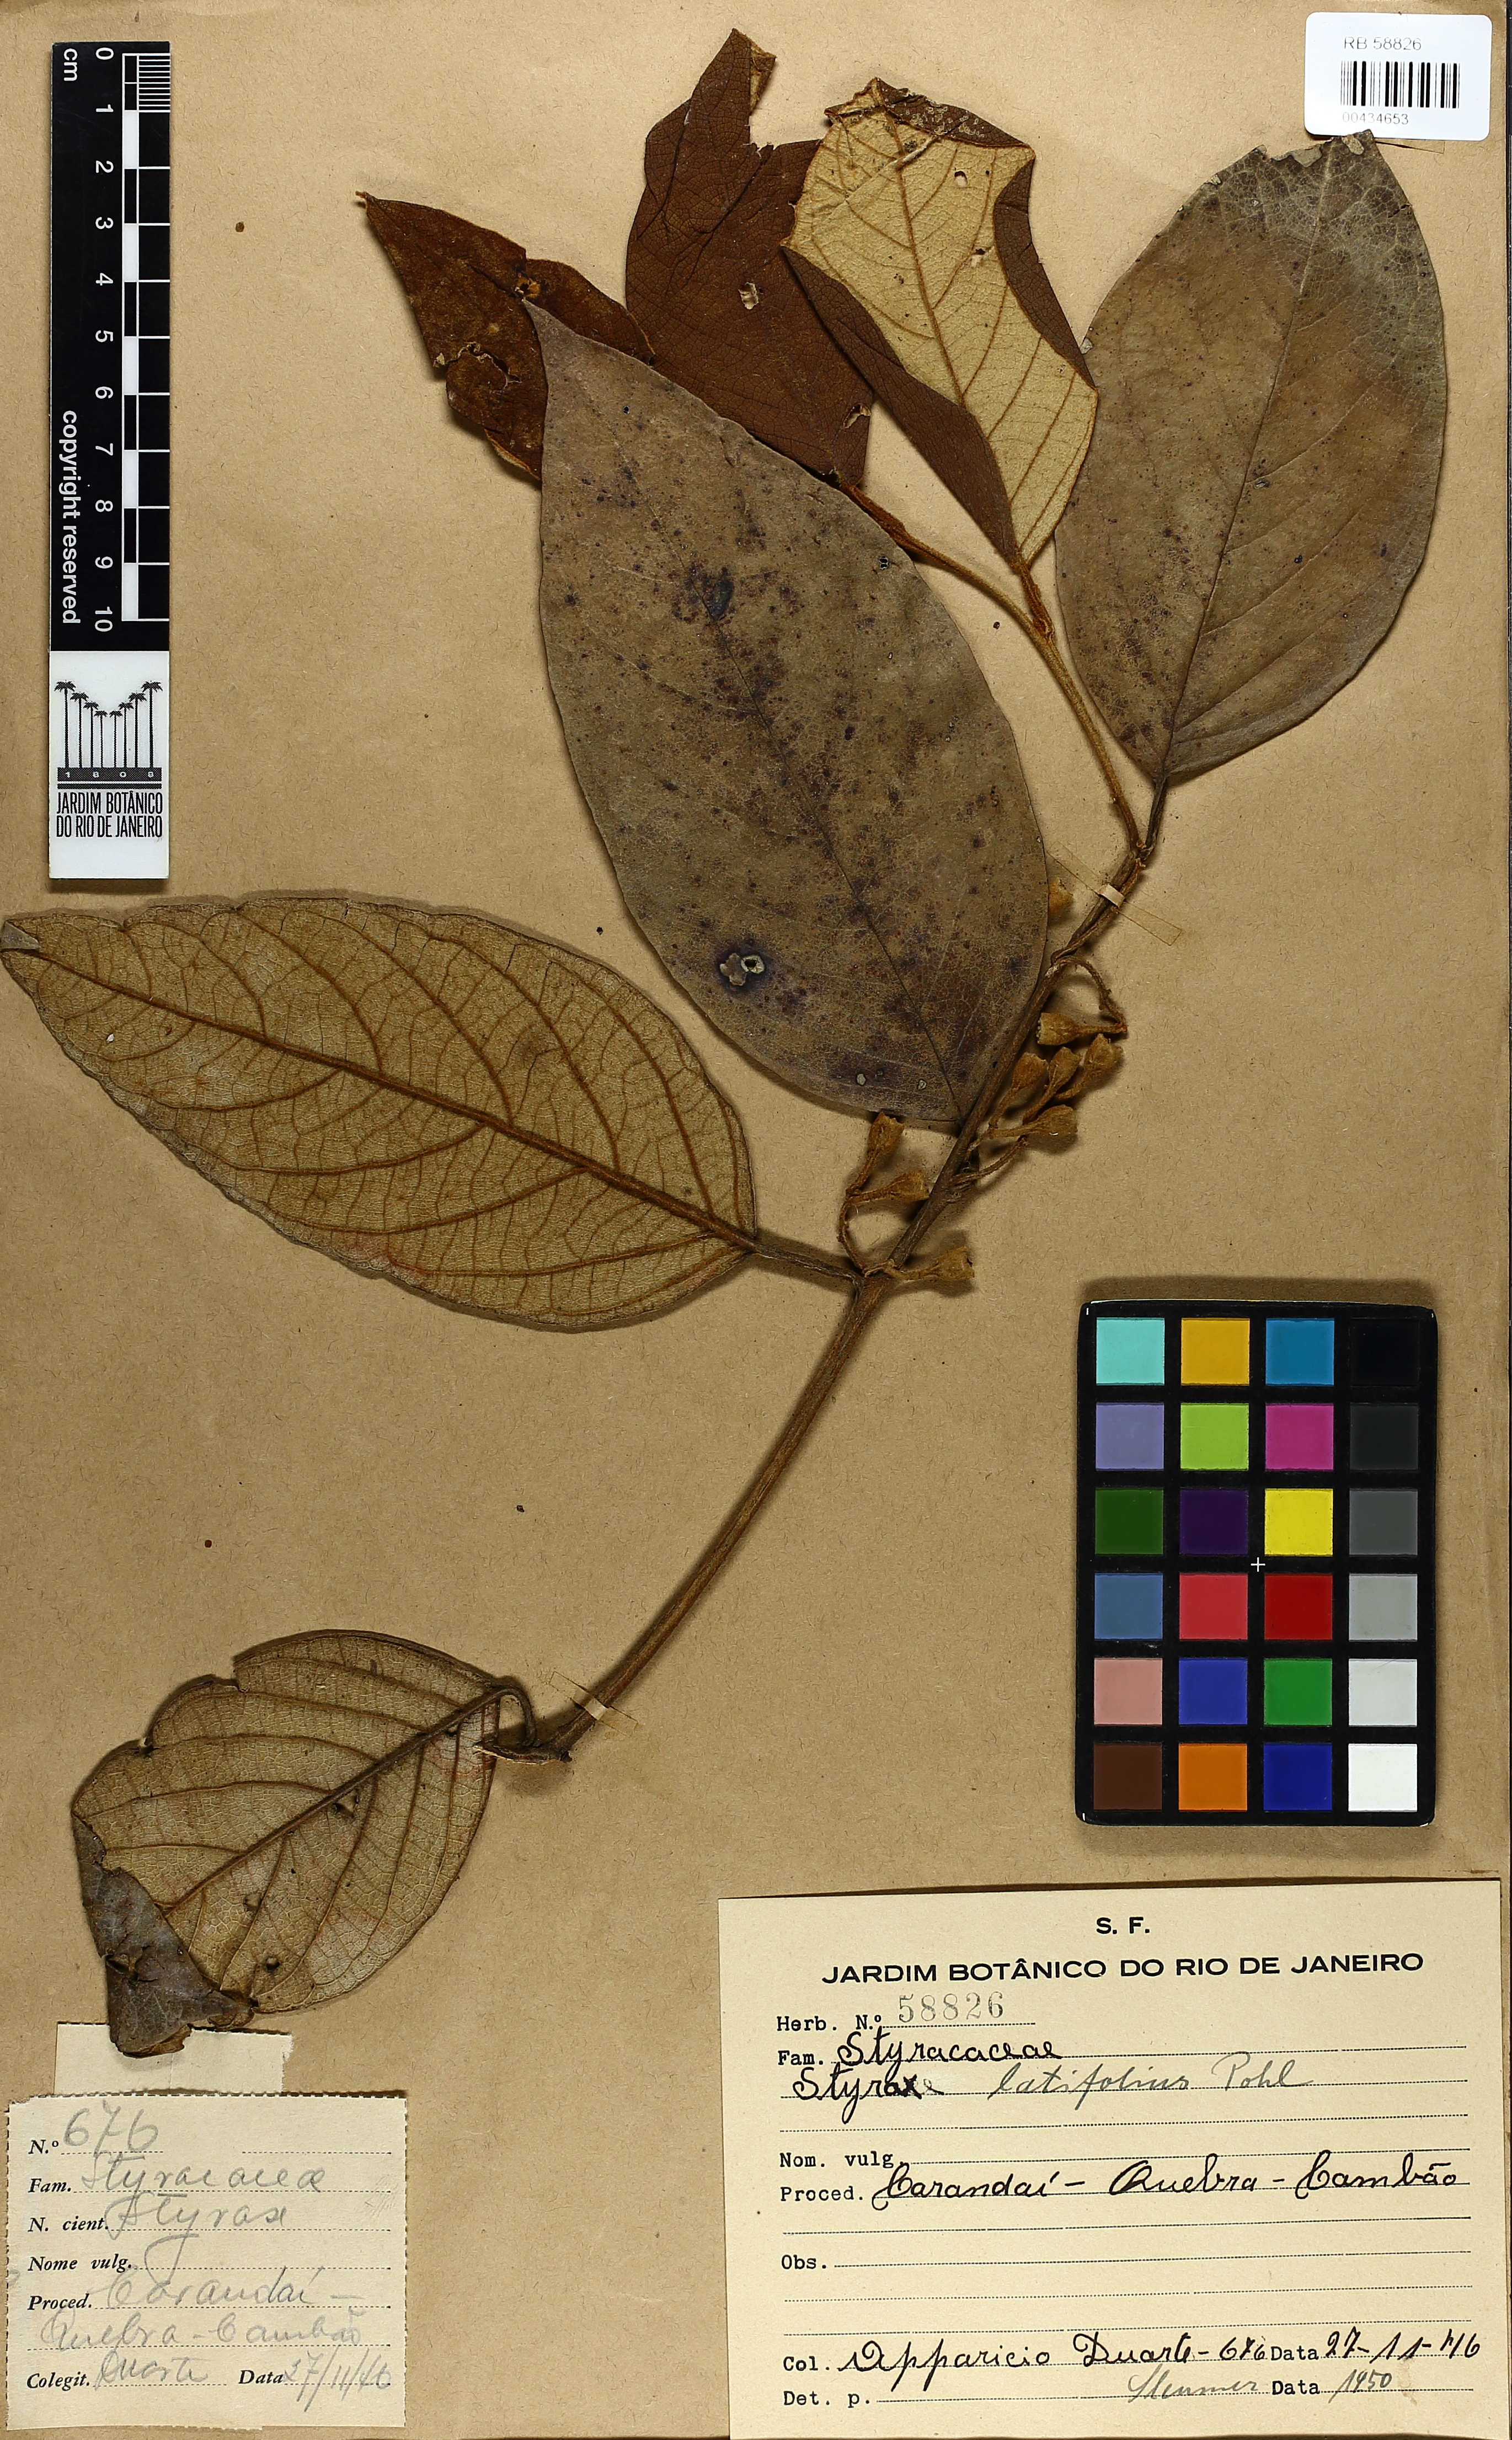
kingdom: Plantae
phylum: Tracheophyta
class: Magnoliopsida
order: Ericales
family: Styracaceae
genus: Styrax
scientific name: Styrax latifolius
